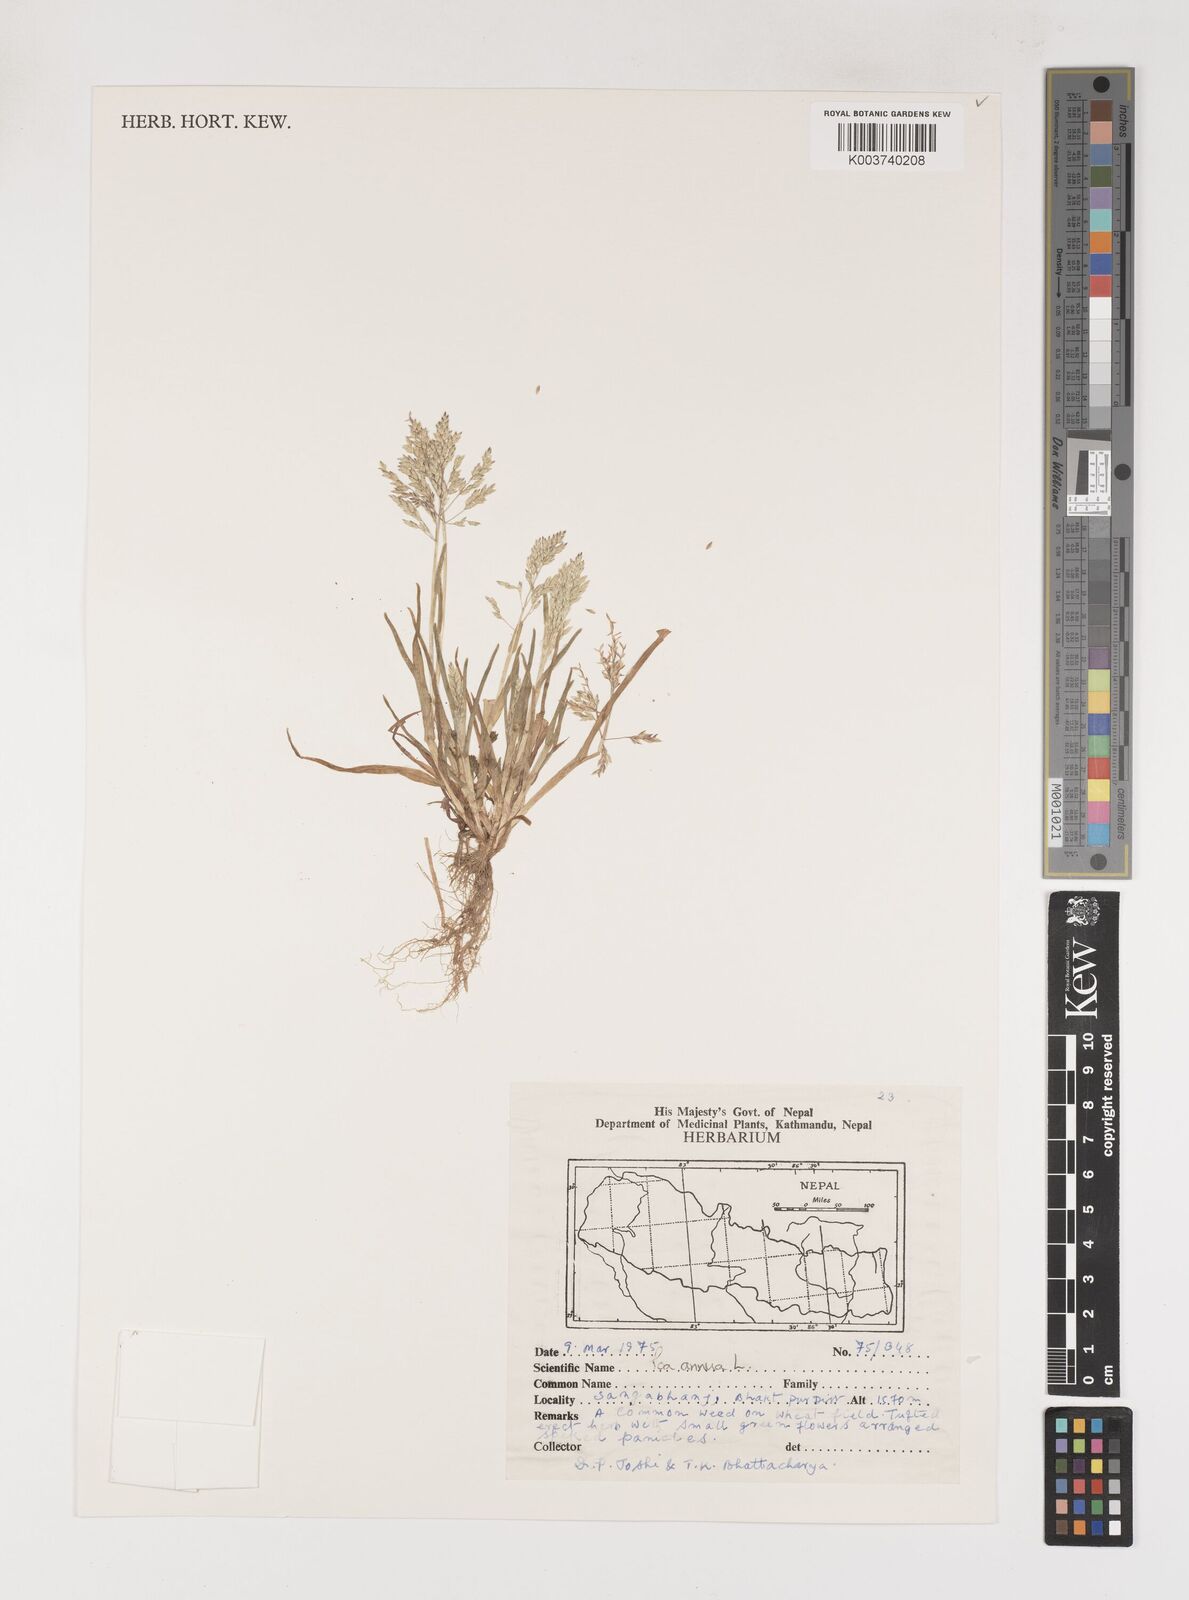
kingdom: Plantae
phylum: Tracheophyta
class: Liliopsida
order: Poales
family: Poaceae
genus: Poa
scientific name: Poa annua
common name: Annual bluegrass
